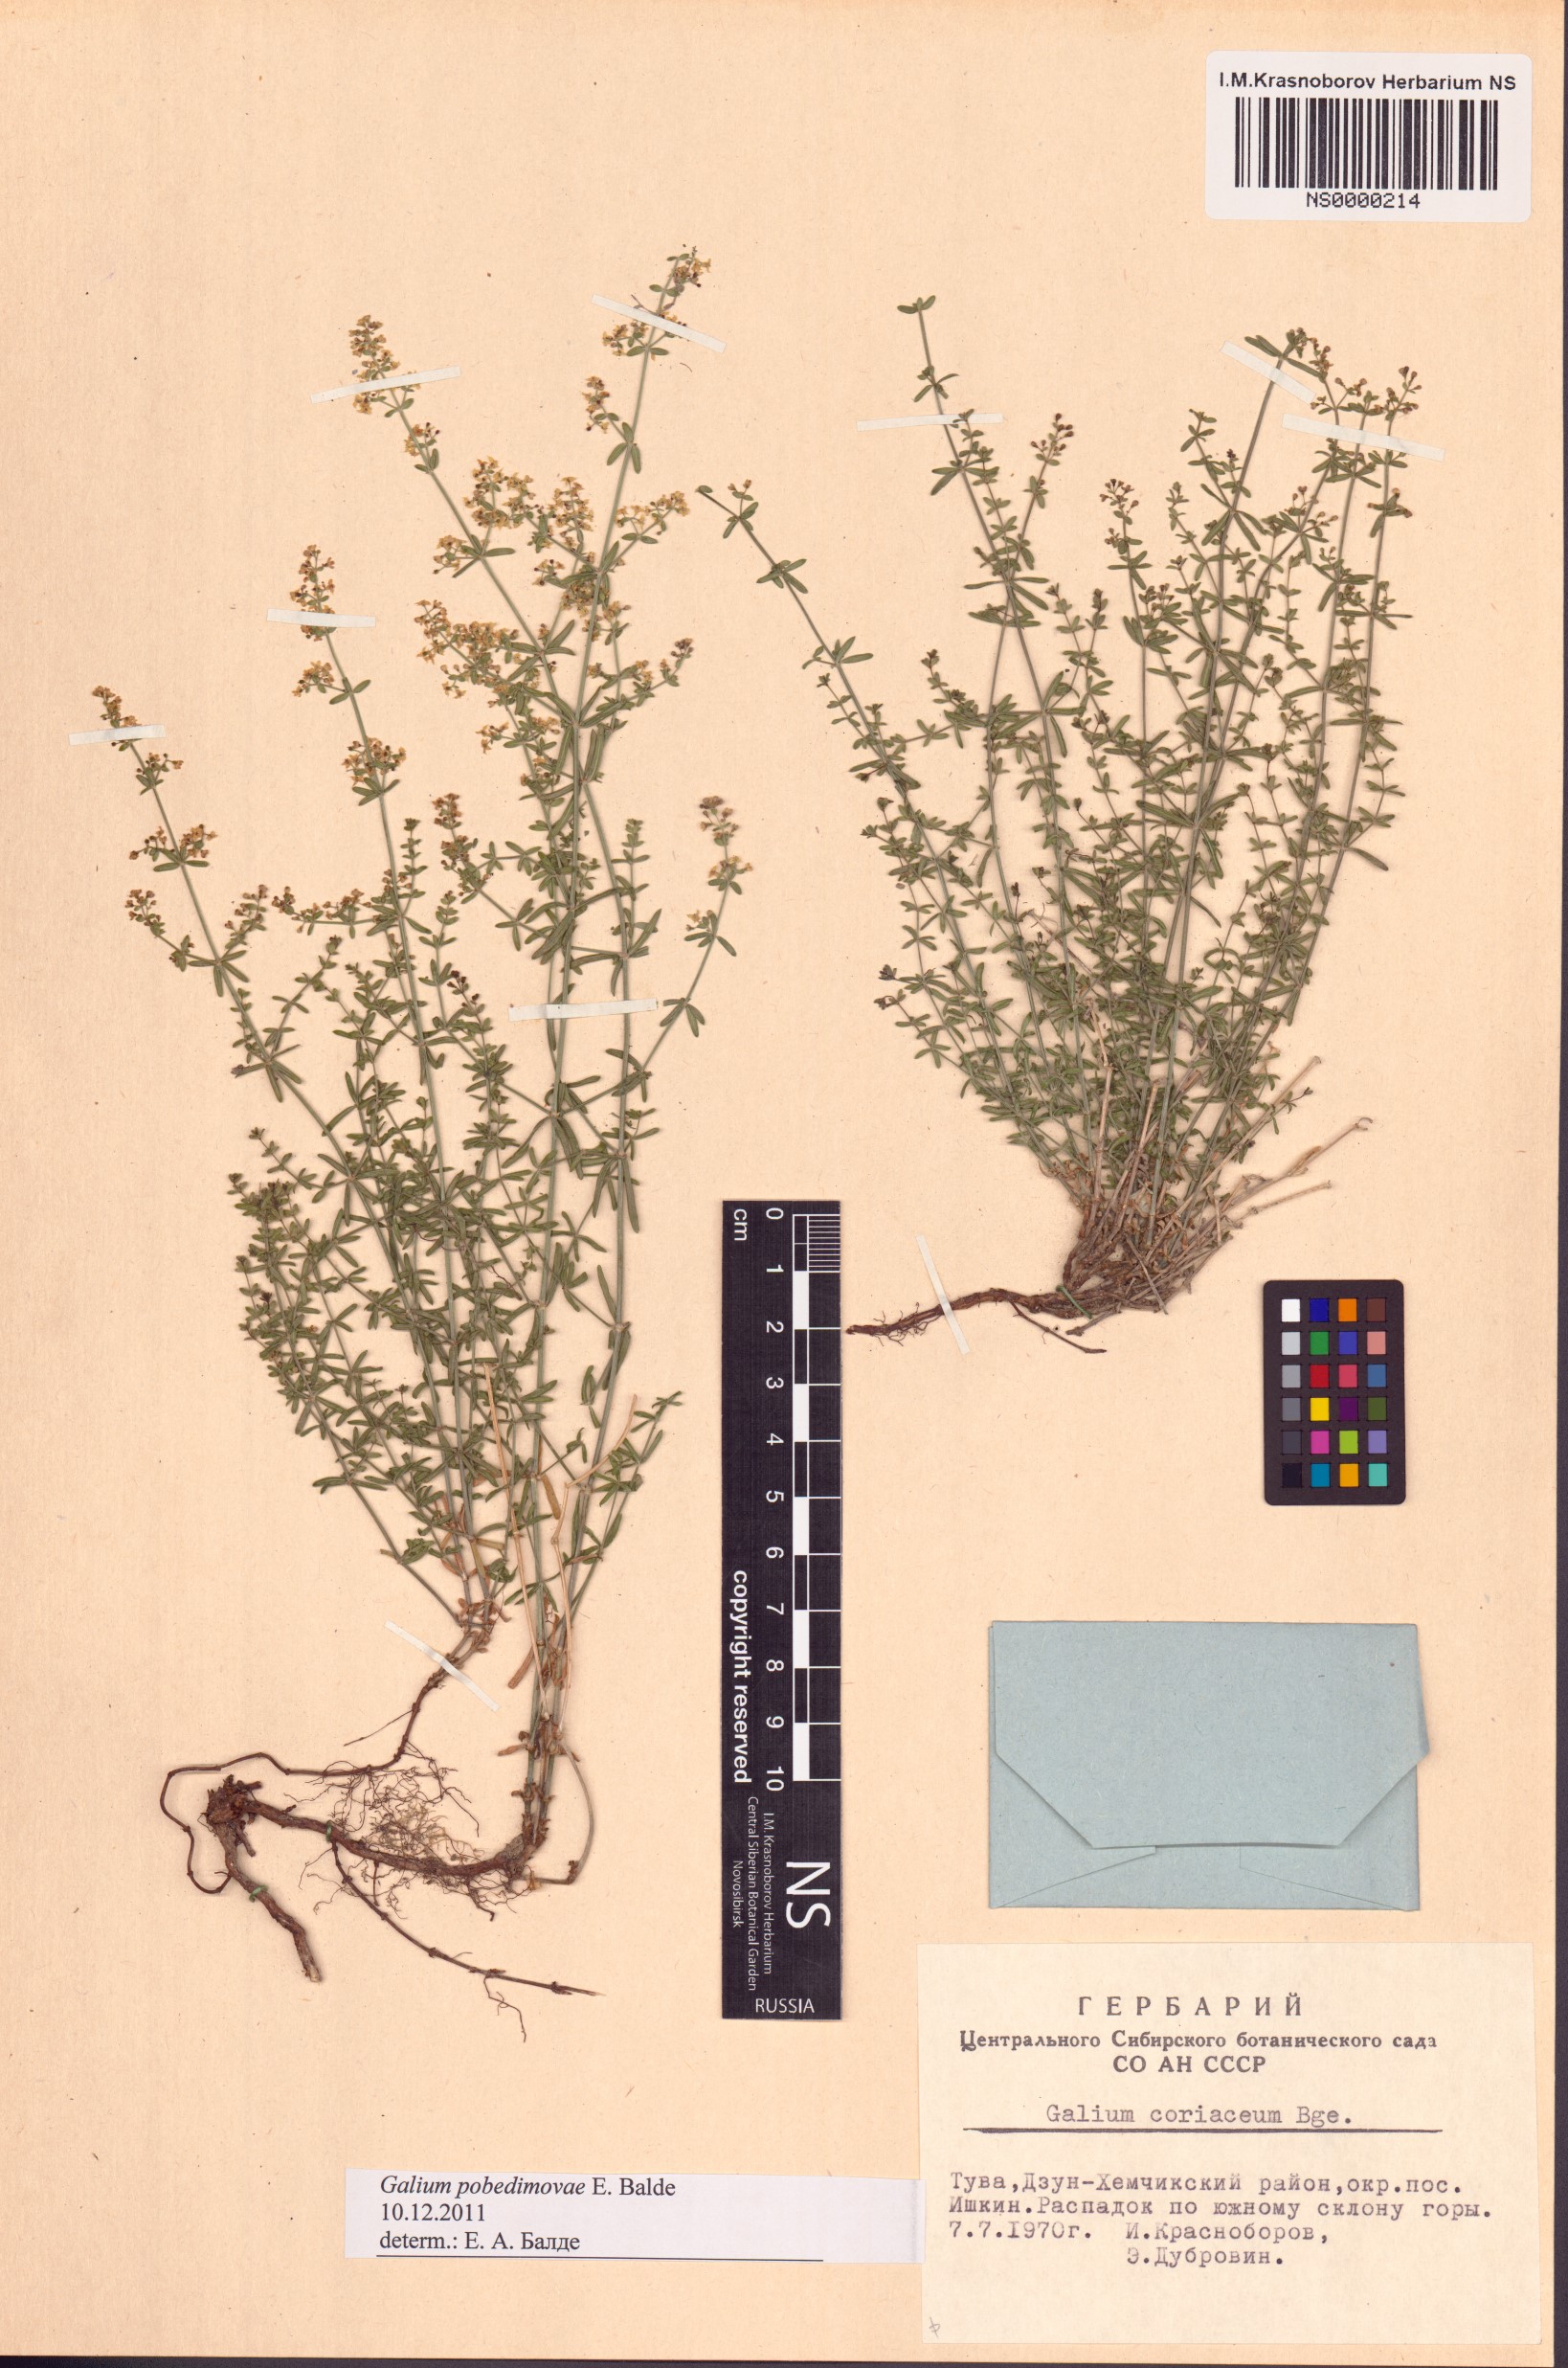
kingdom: Plantae
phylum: Tracheophyta
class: Magnoliopsida
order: Gentianales
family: Rubiaceae
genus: Galium
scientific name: Galium pobedimovae
